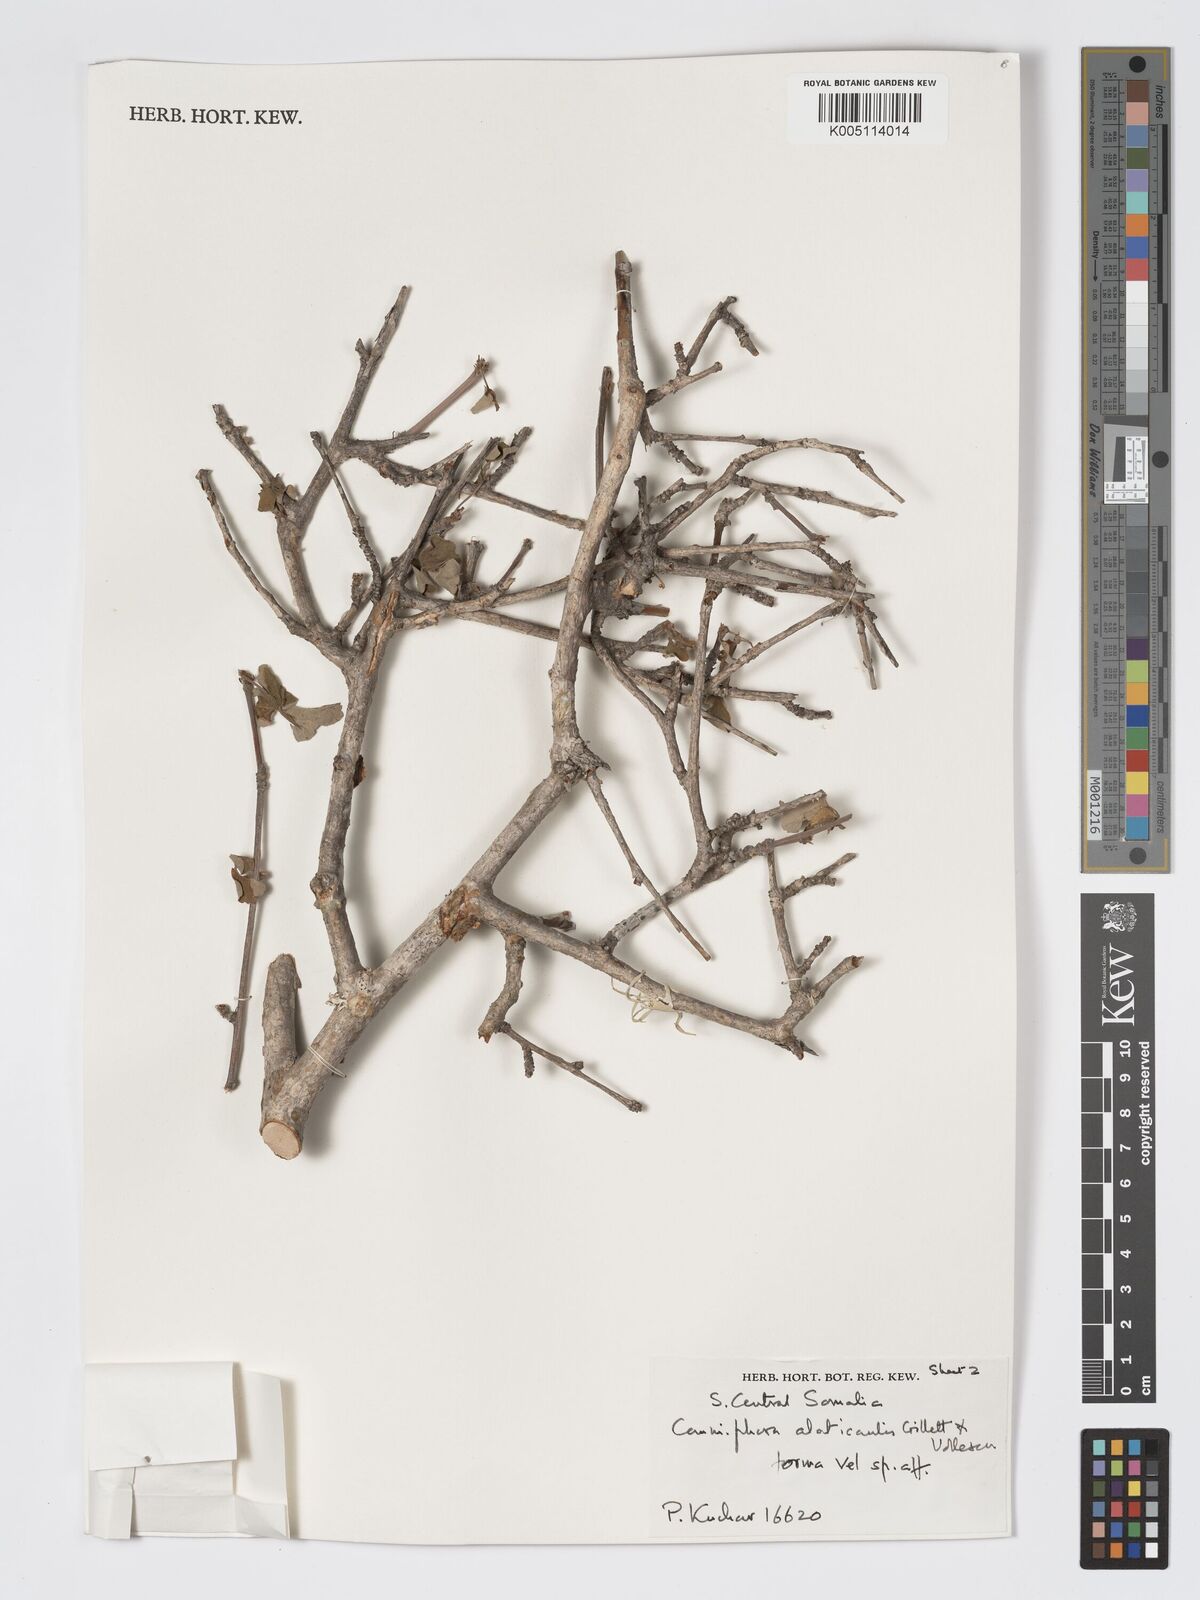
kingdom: Plantae
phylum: Tracheophyta
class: Magnoliopsida
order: Sapindales
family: Burseraceae
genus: Commiphora
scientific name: Commiphora alaticaulis
